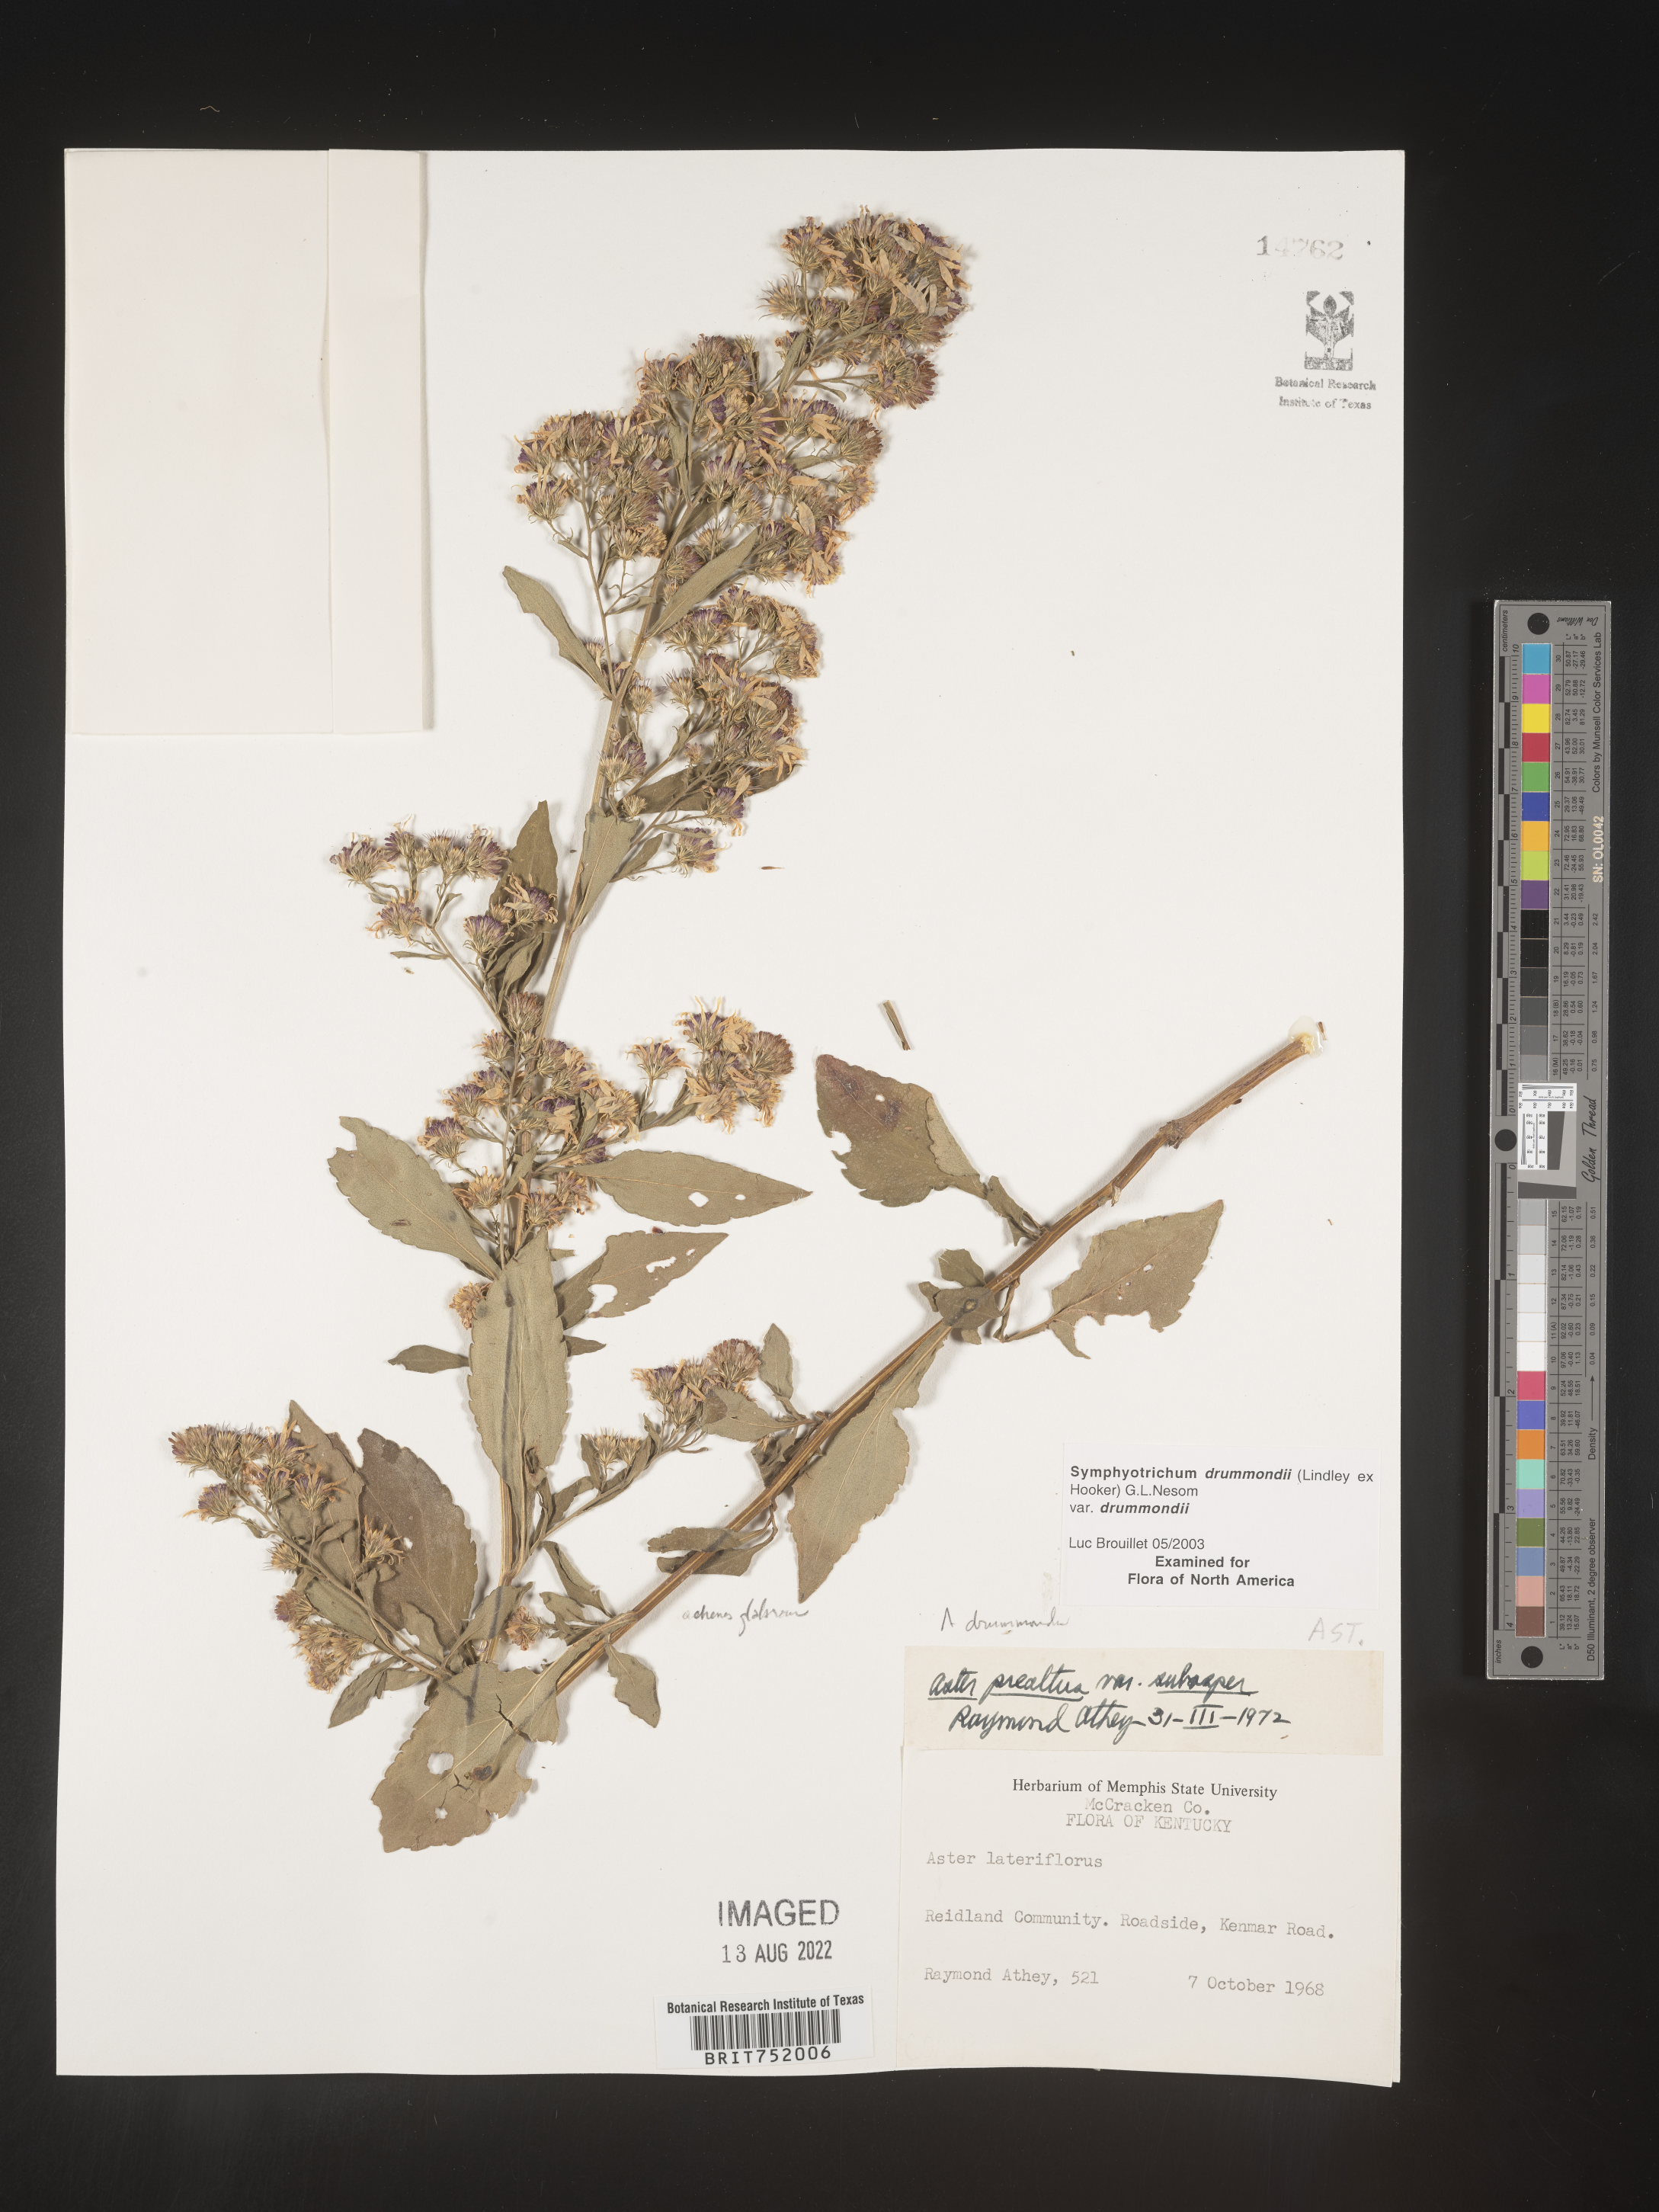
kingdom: Plantae
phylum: Tracheophyta
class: Magnoliopsida
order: Asterales
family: Asteraceae
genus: Symphyotrichum
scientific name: Symphyotrichum drummondii
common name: Drummond's aster
